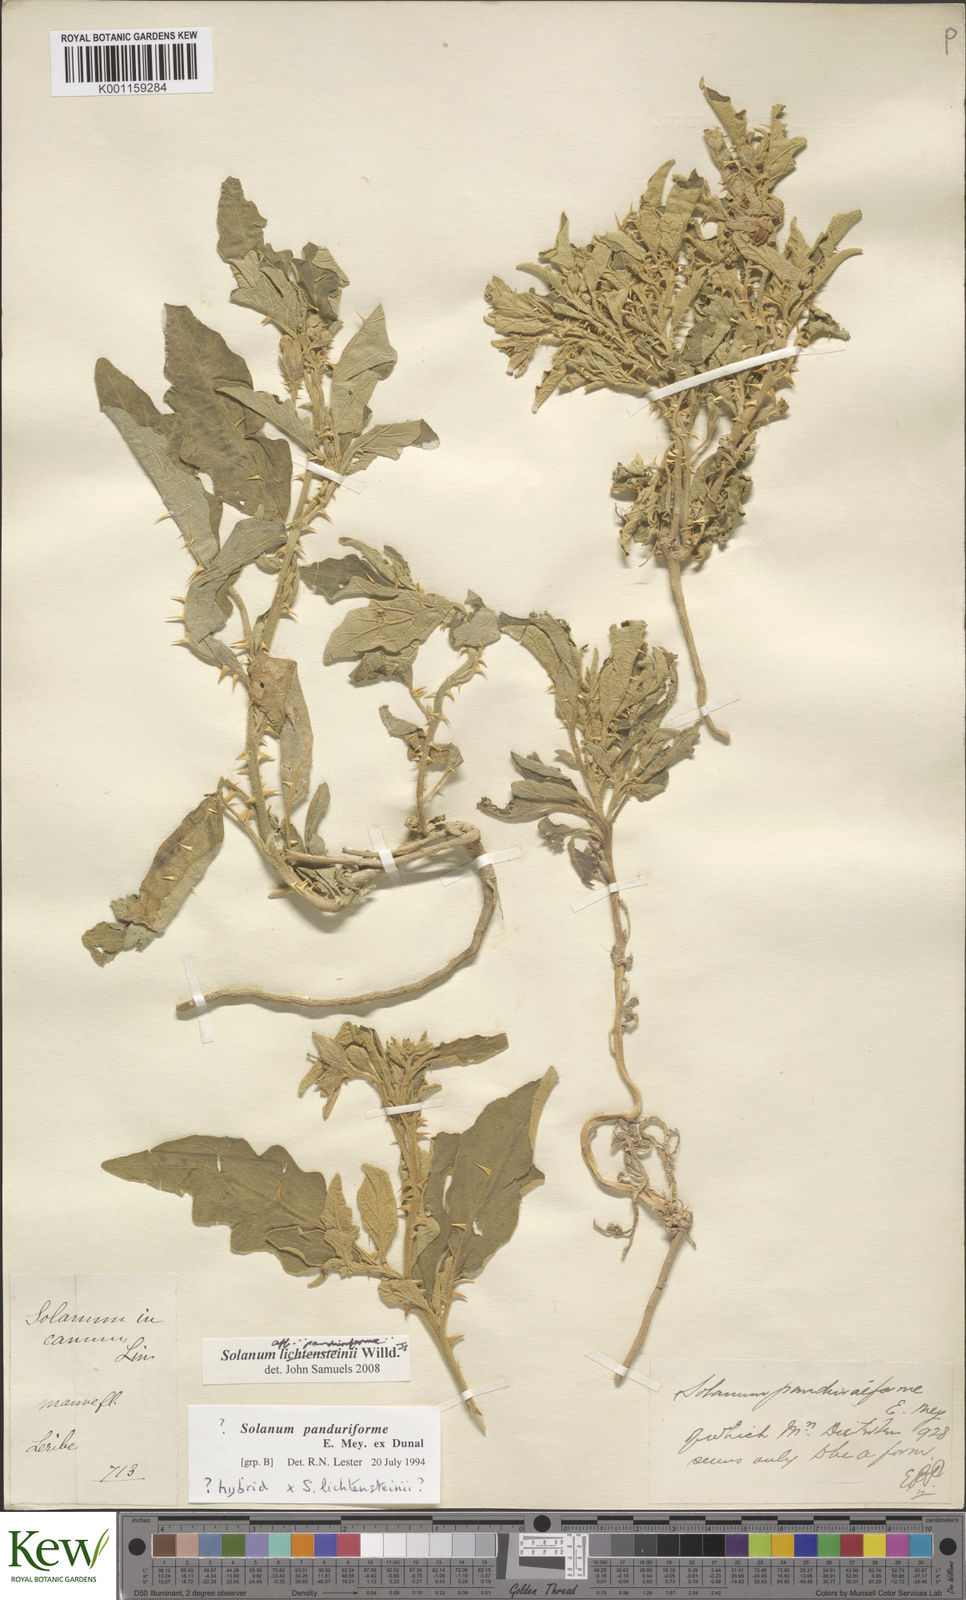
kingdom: Plantae
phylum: Tracheophyta
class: Magnoliopsida
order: Solanales
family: Solanaceae
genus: Solanum
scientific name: Solanum lichtensteinii
